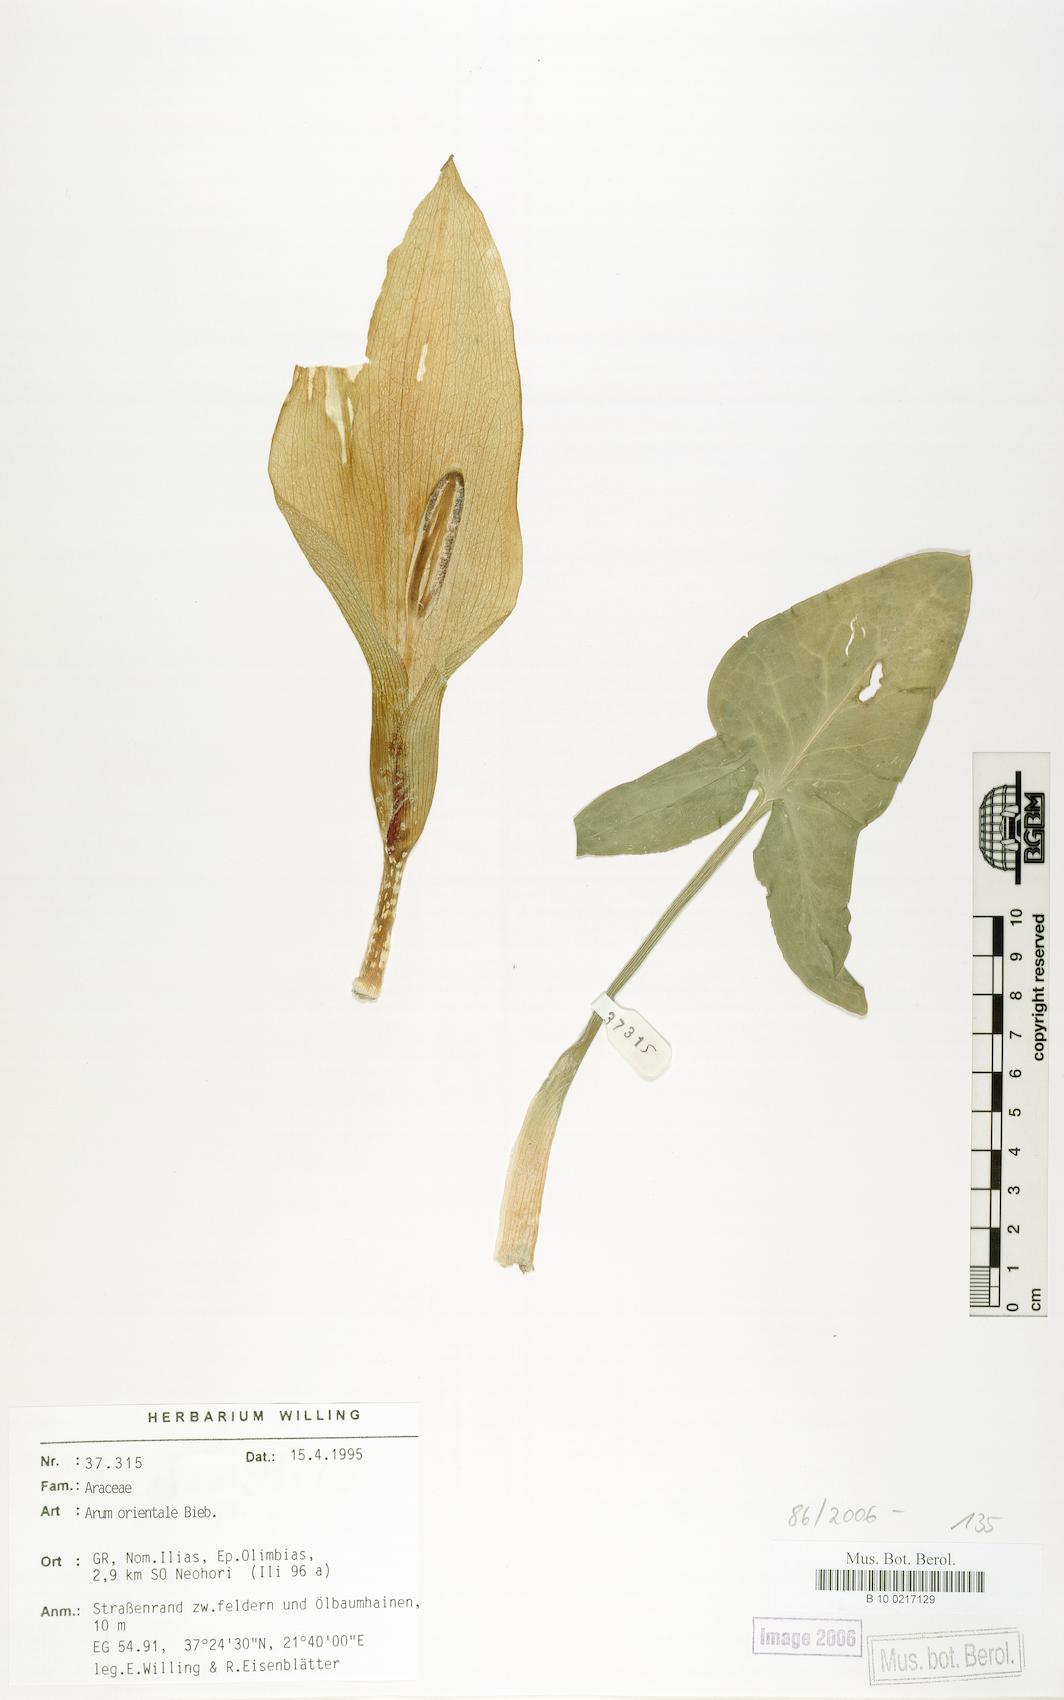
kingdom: Plantae
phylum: Tracheophyta
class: Liliopsida
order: Alismatales
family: Araceae
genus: Arum
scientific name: Arum orientale
